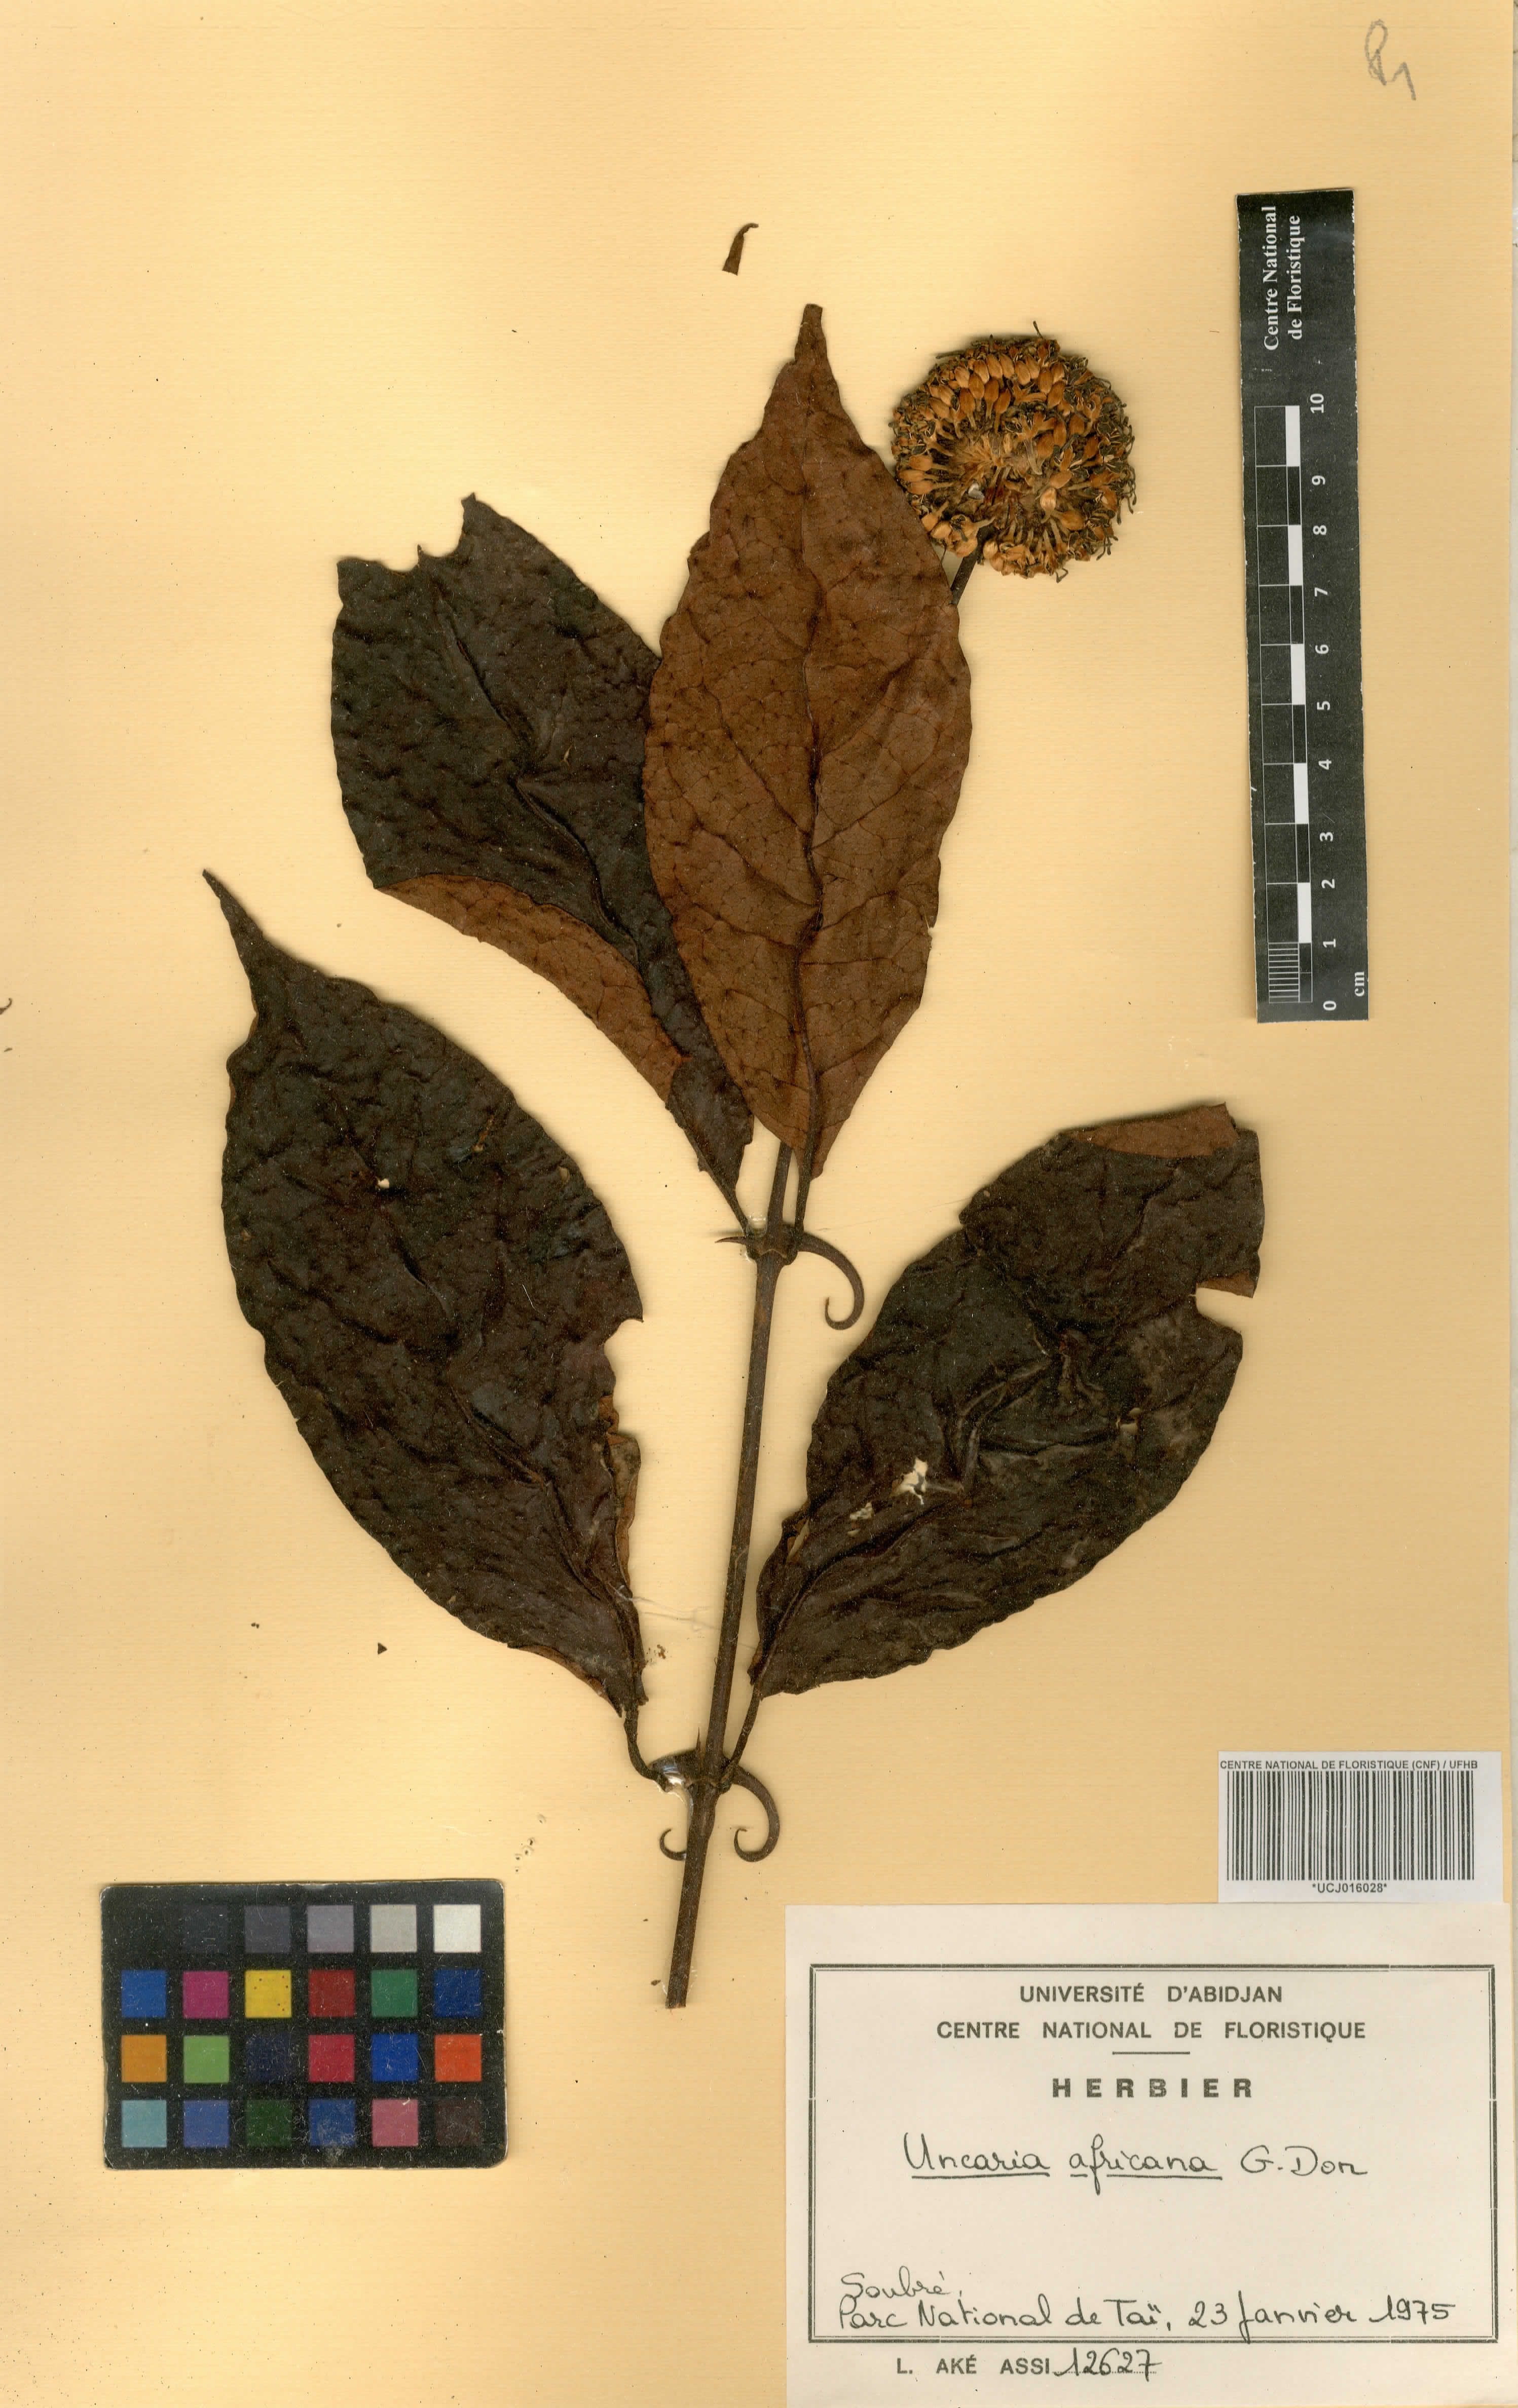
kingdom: Plantae
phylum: Tracheophyta
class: Magnoliopsida
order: Gentianales
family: Rubiaceae
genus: Uncaria
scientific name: Uncaria africana
